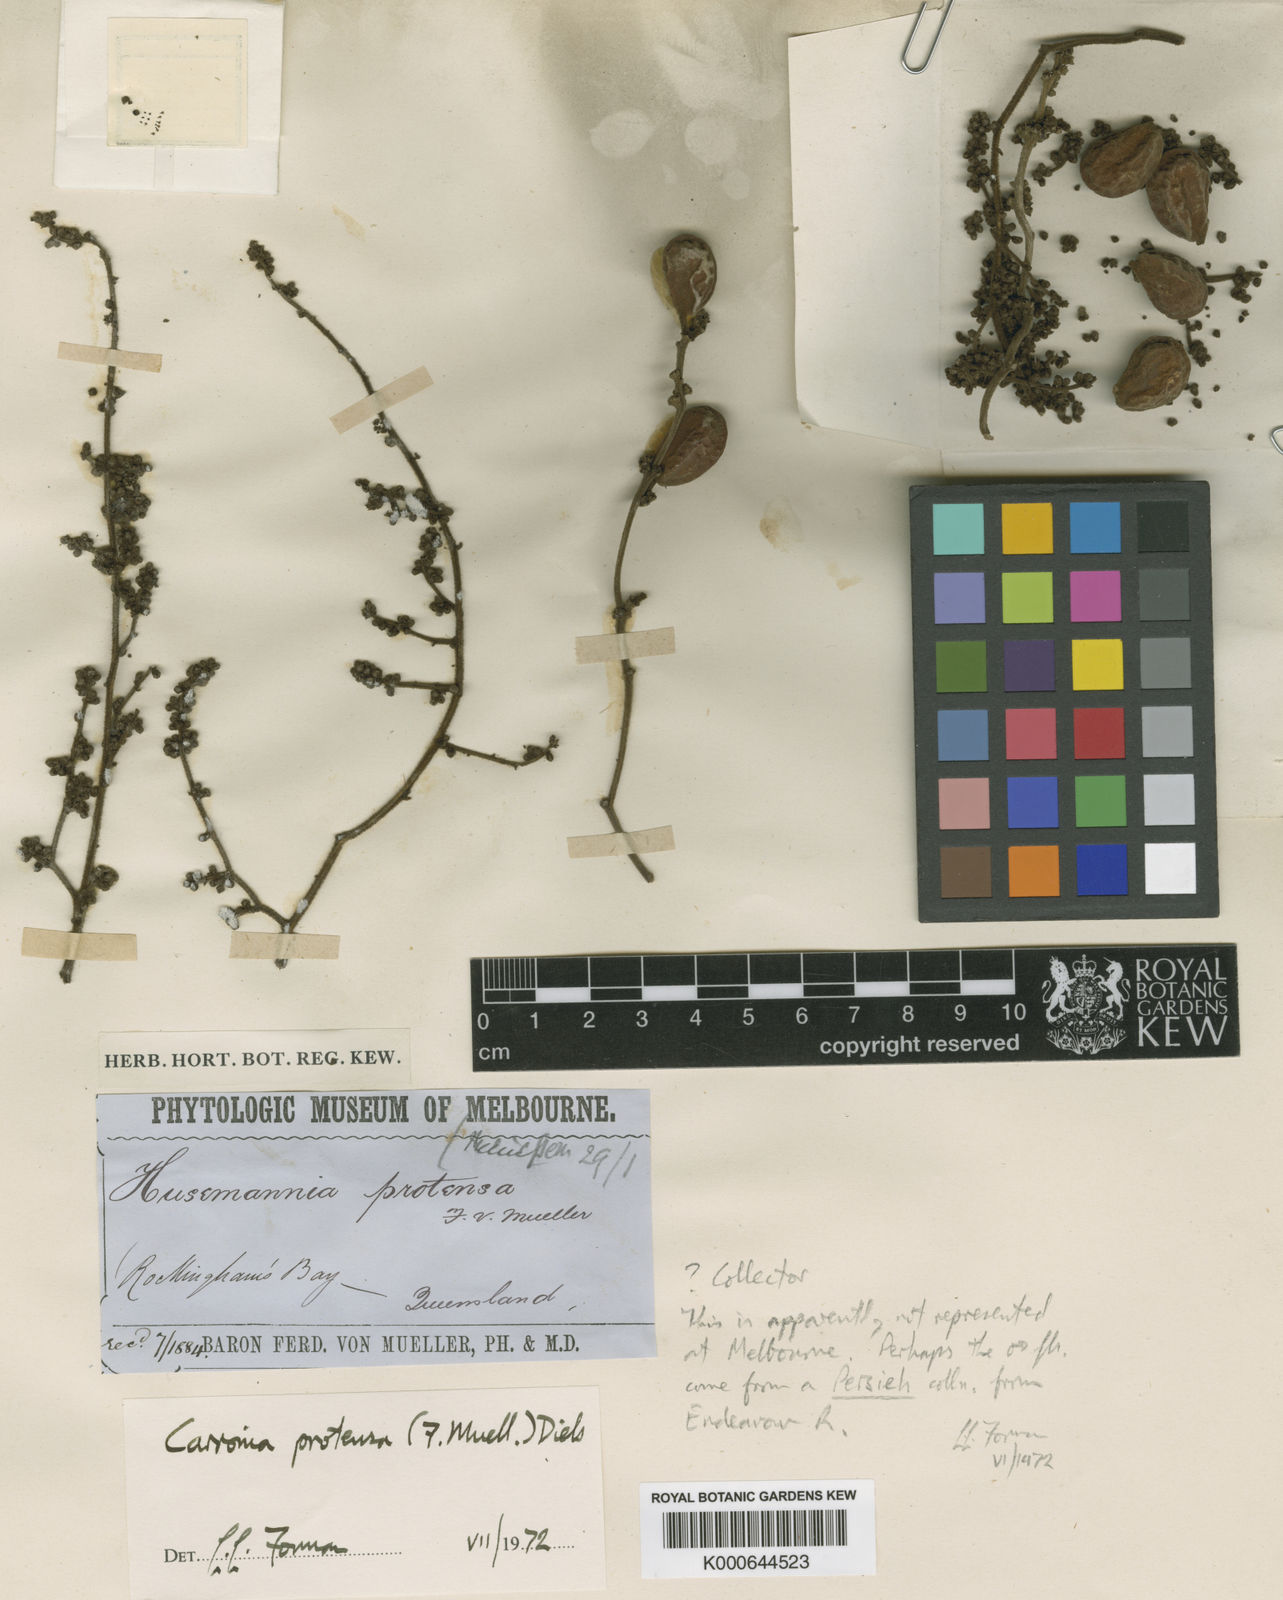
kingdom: Plantae
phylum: Tracheophyta
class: Magnoliopsida
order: Ranunculales
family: Menispermaceae
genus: Carronia
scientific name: Carronia protensa
